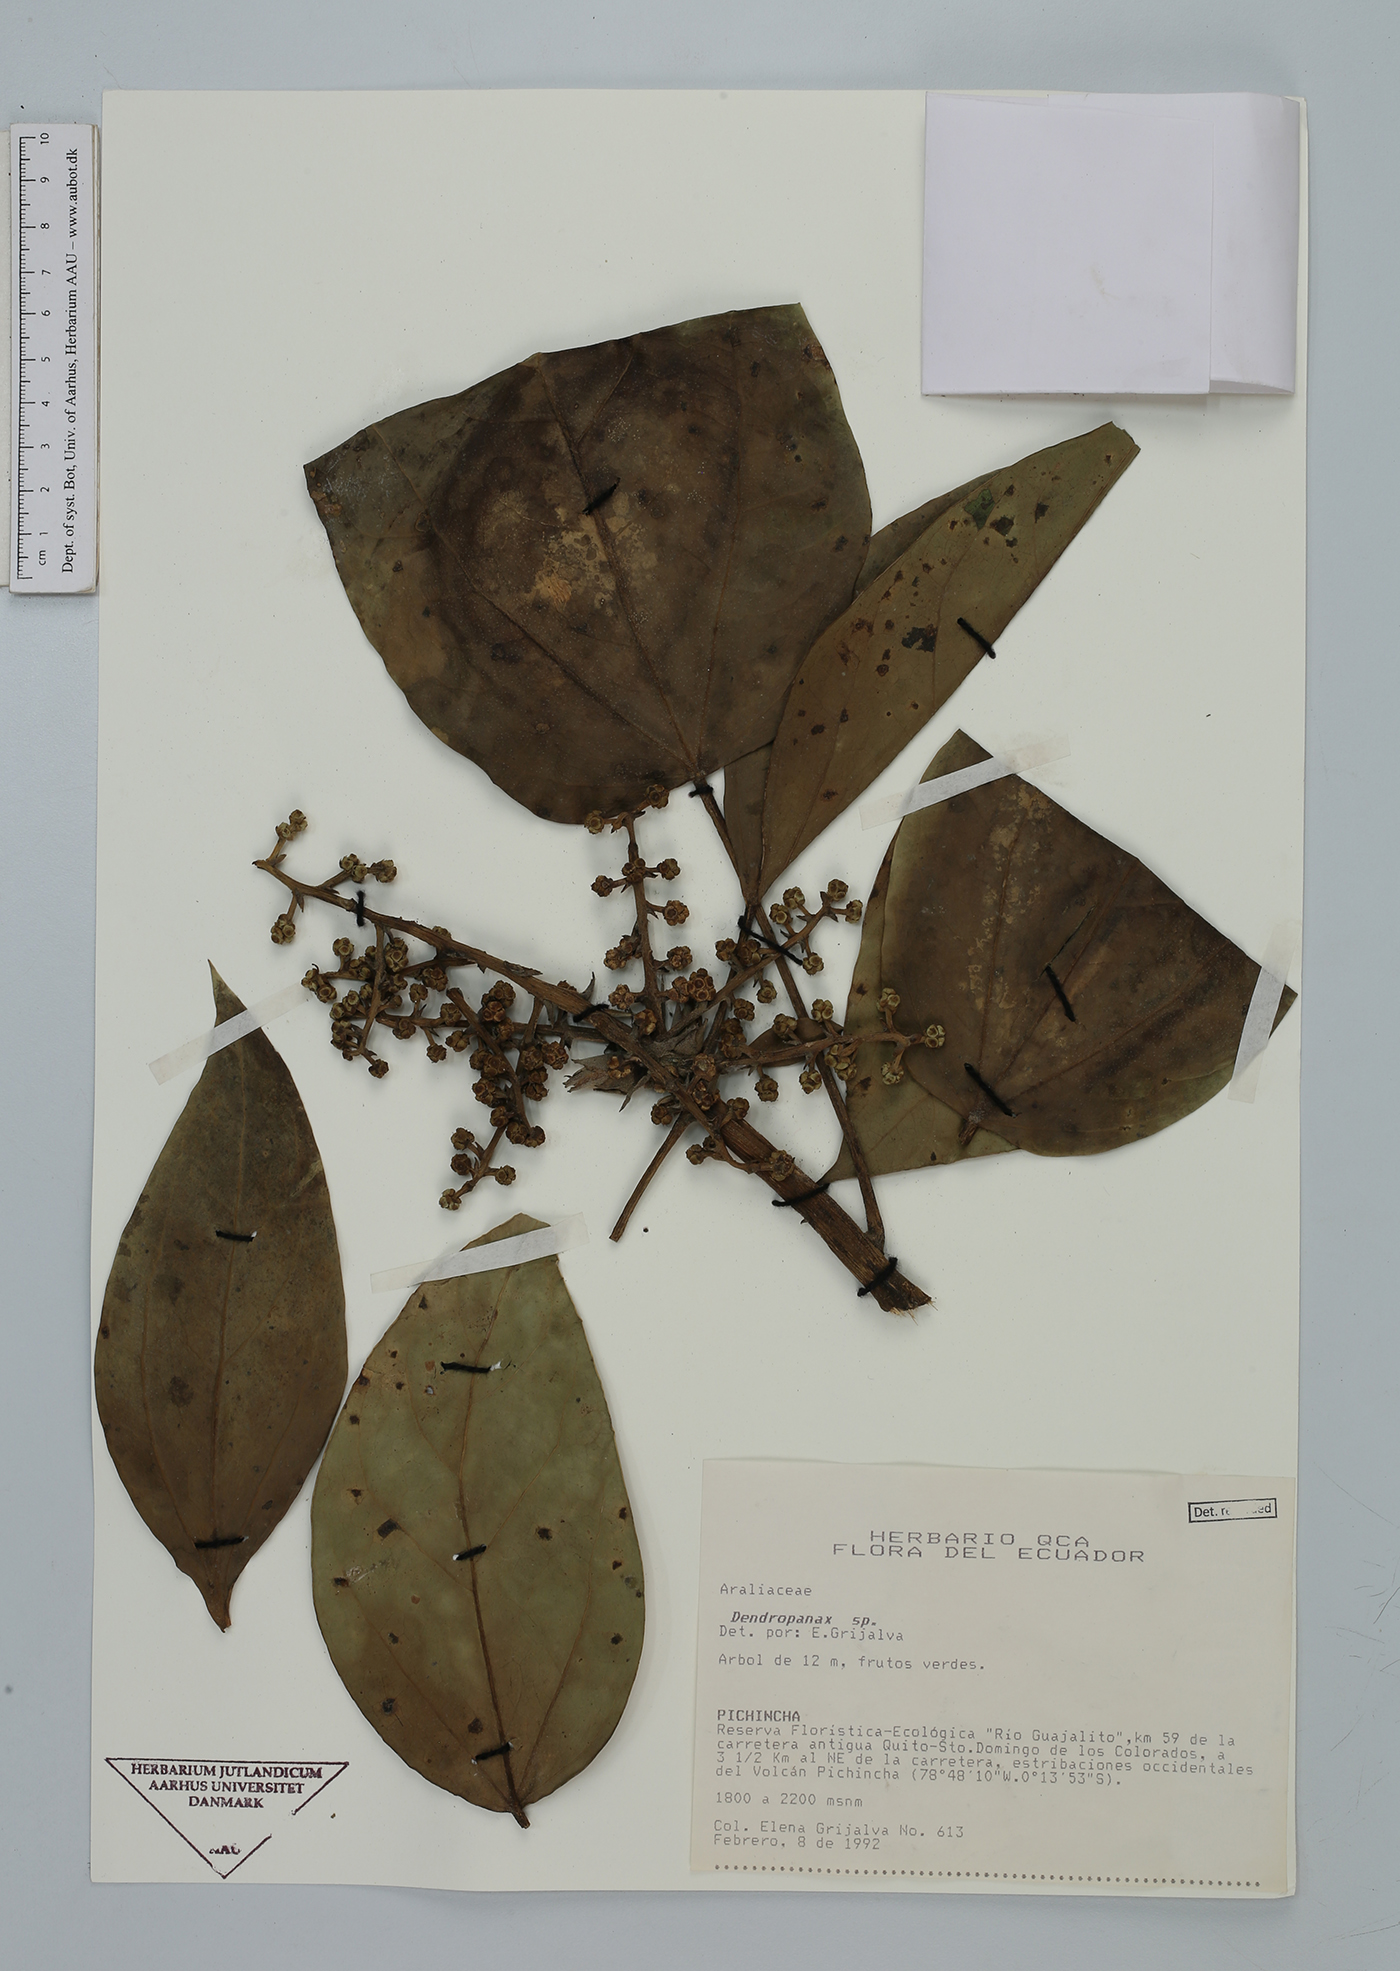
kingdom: Plantae
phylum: Tracheophyta
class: Magnoliopsida
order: Apiales
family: Araliaceae
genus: Dendropanax
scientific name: Dendropanax
